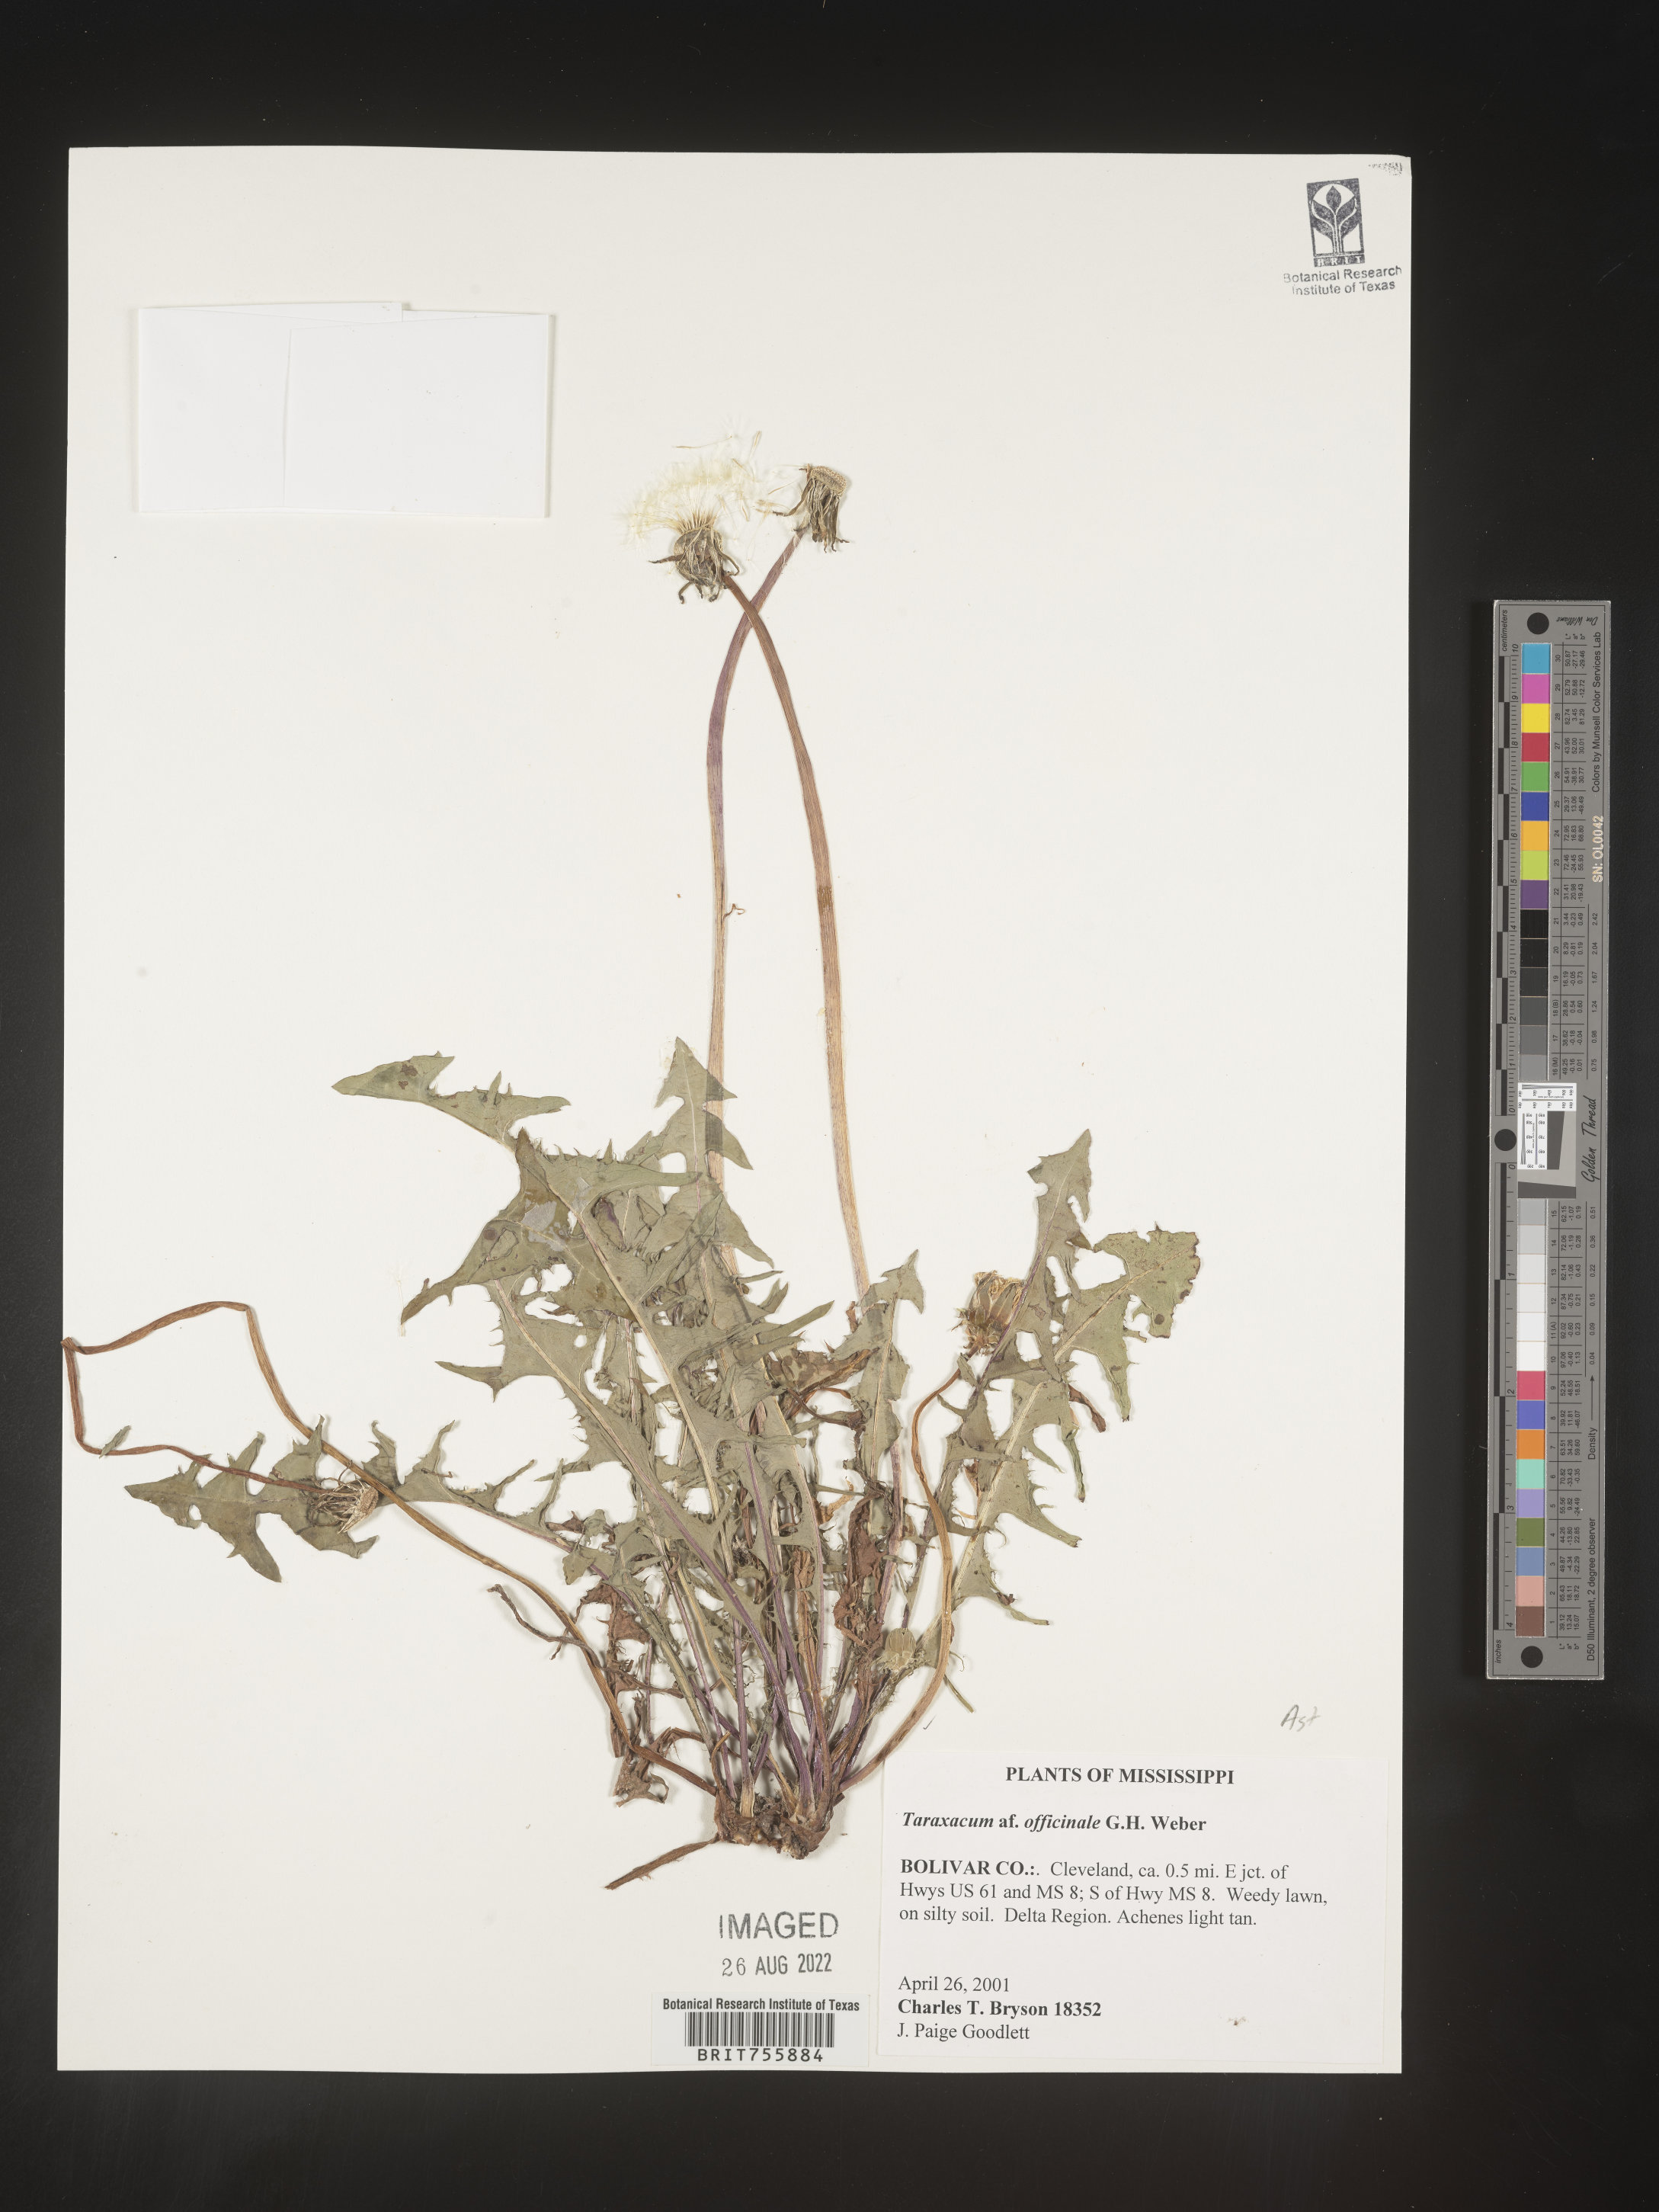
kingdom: Plantae
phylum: Tracheophyta
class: Magnoliopsida
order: Asterales
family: Asteraceae
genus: Taraxacum
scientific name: Taraxacum officinale
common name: Common dandelion
